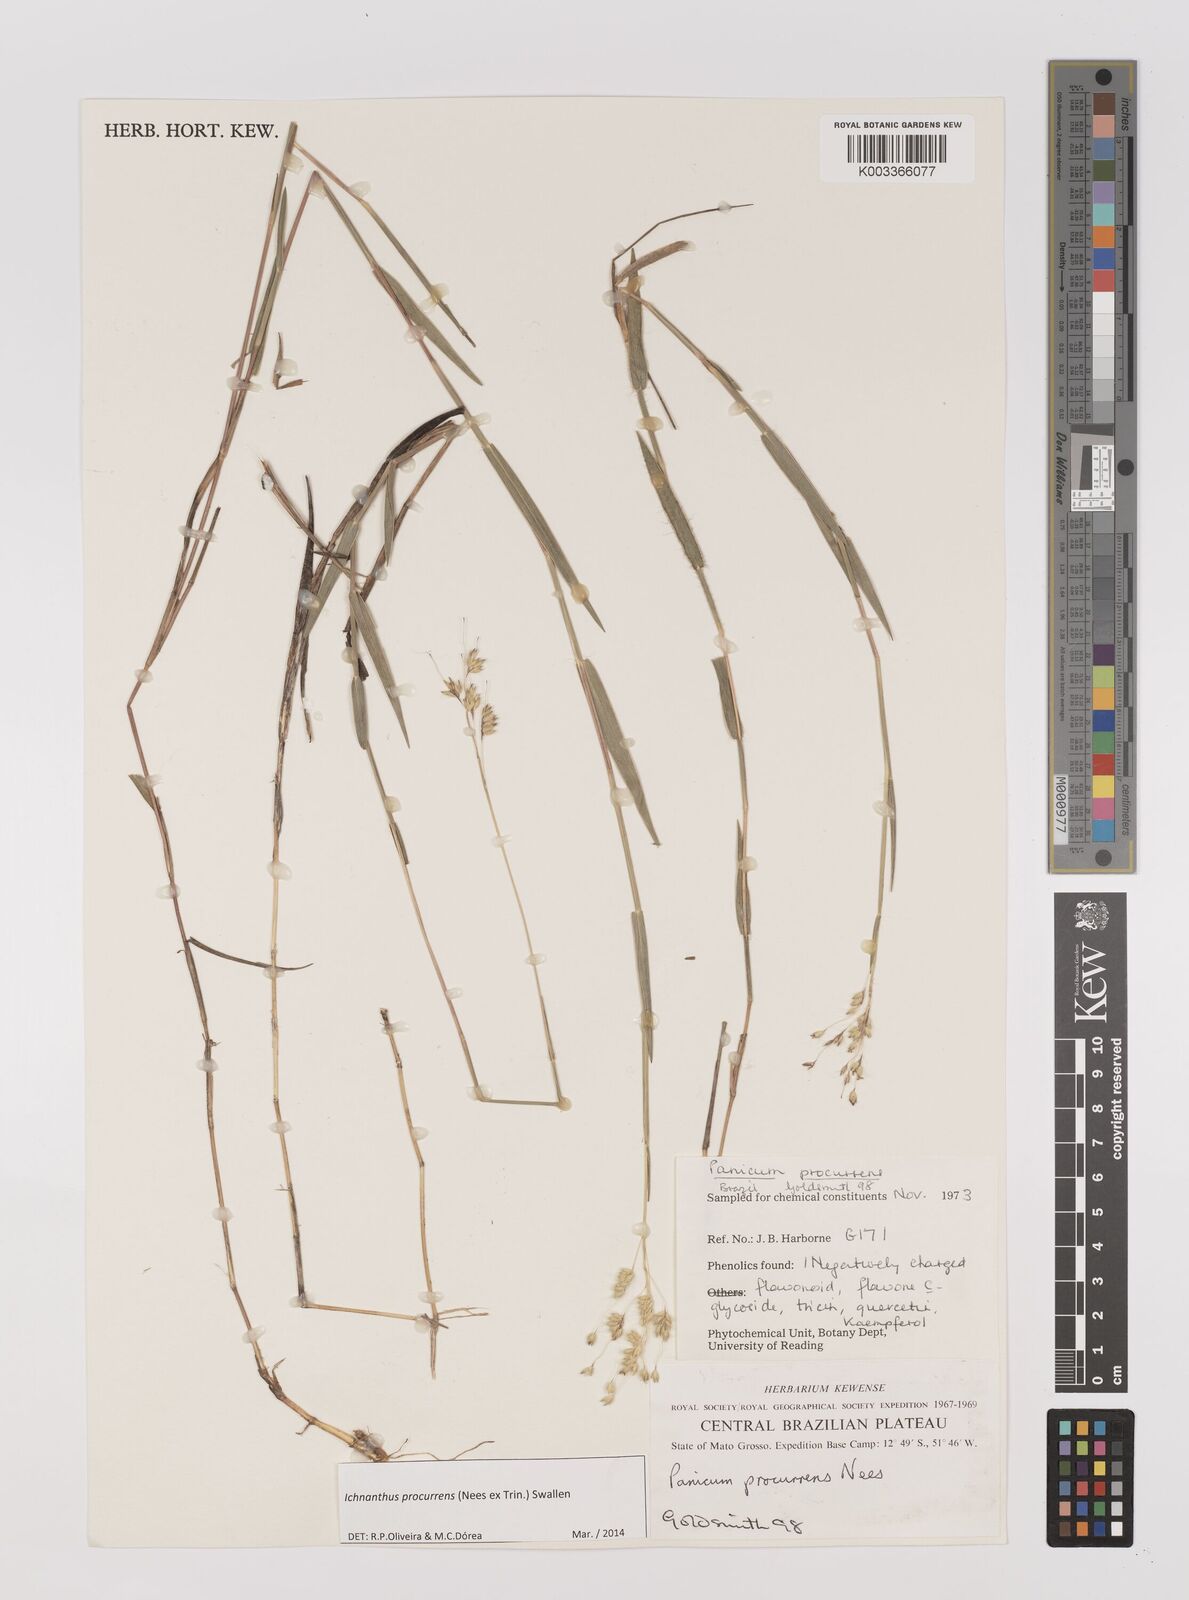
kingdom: Plantae
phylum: Tracheophyta
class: Liliopsida
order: Poales
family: Poaceae
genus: Oedochloa
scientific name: Oedochloa procurrens
